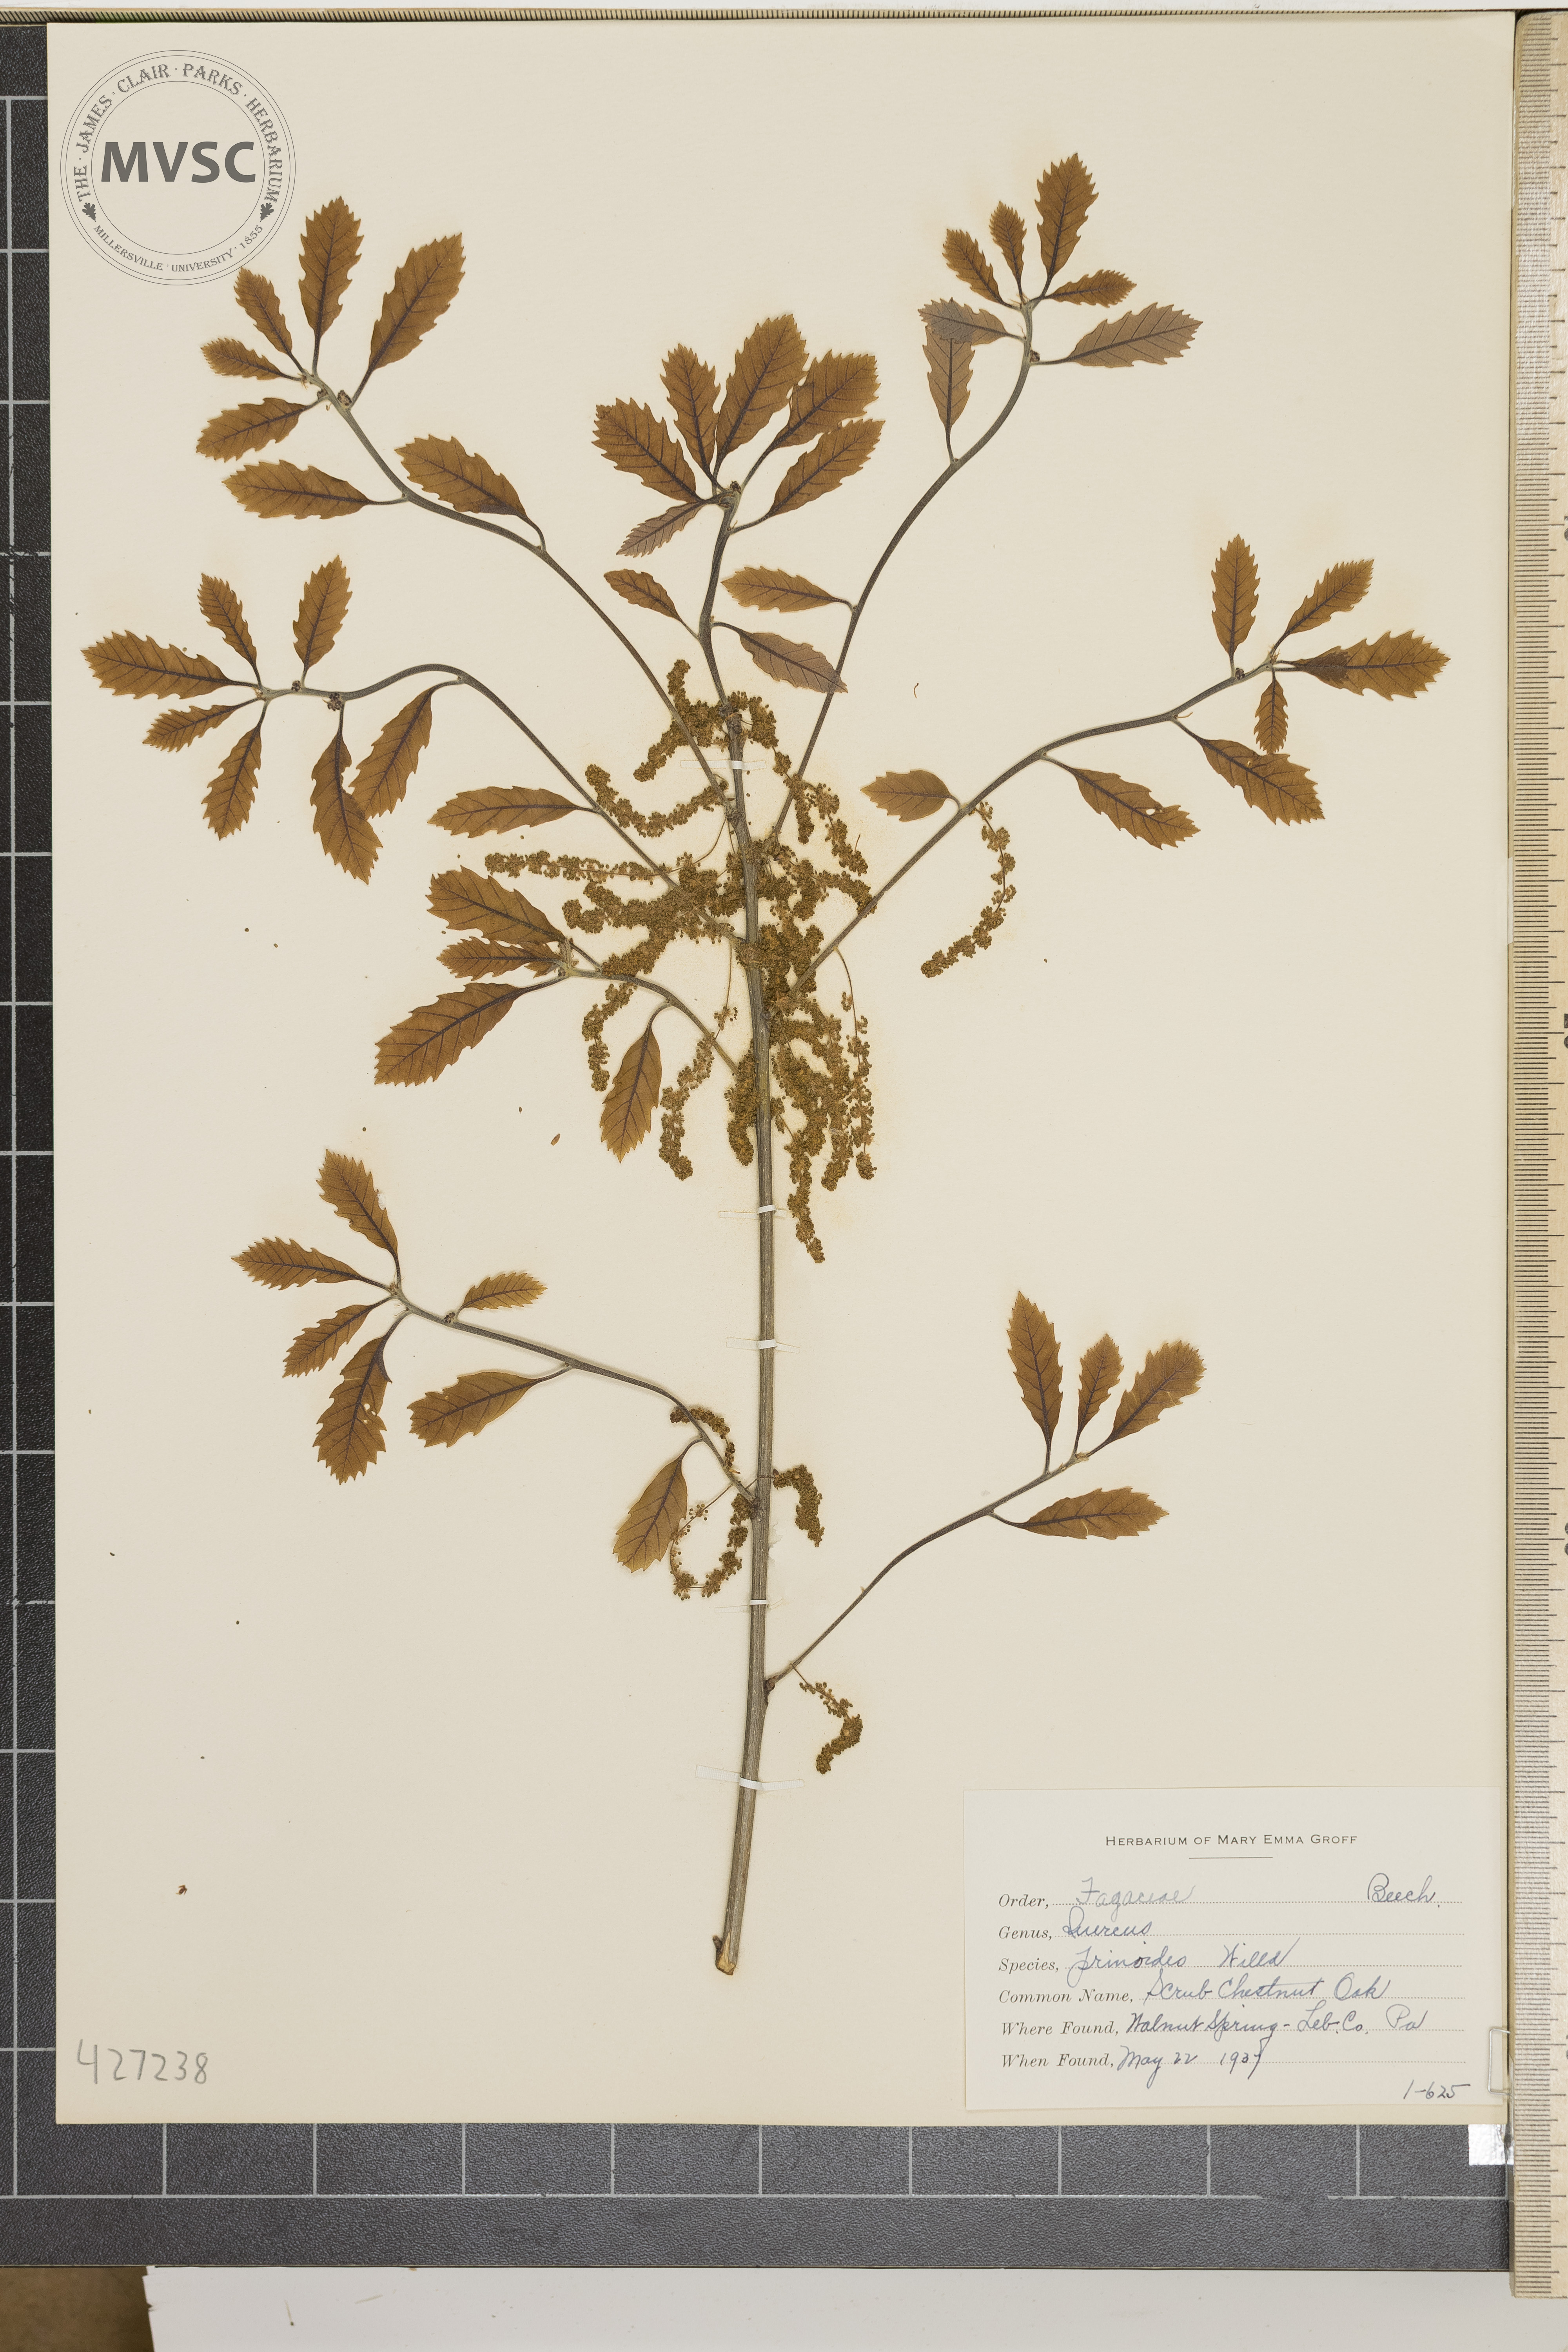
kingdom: Plantae
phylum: Tracheophyta
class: Magnoliopsida
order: Fagales
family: Fagaceae
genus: Quercus
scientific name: Quercus prinoides
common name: Scrub Chestnut Oak
